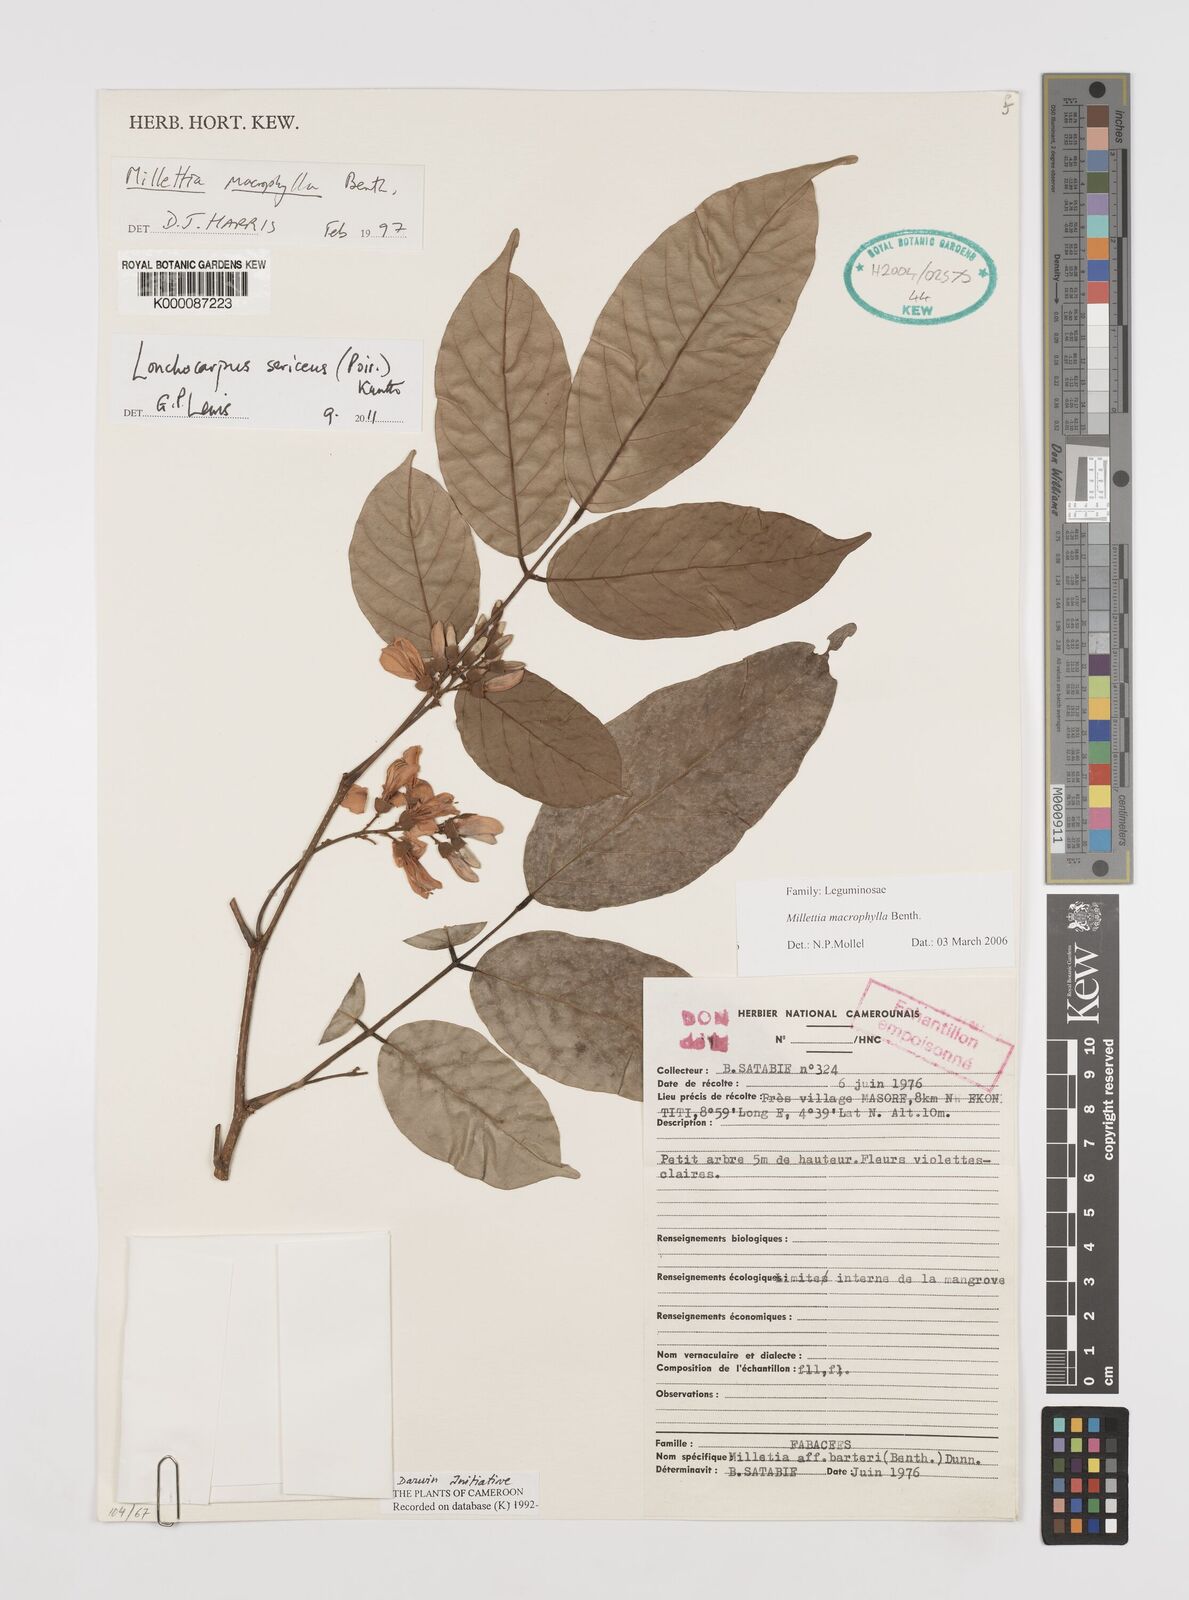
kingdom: Plantae
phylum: Tracheophyta
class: Magnoliopsida
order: Fabales
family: Fabaceae
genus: Lonchocarpus
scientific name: Lonchocarpus
